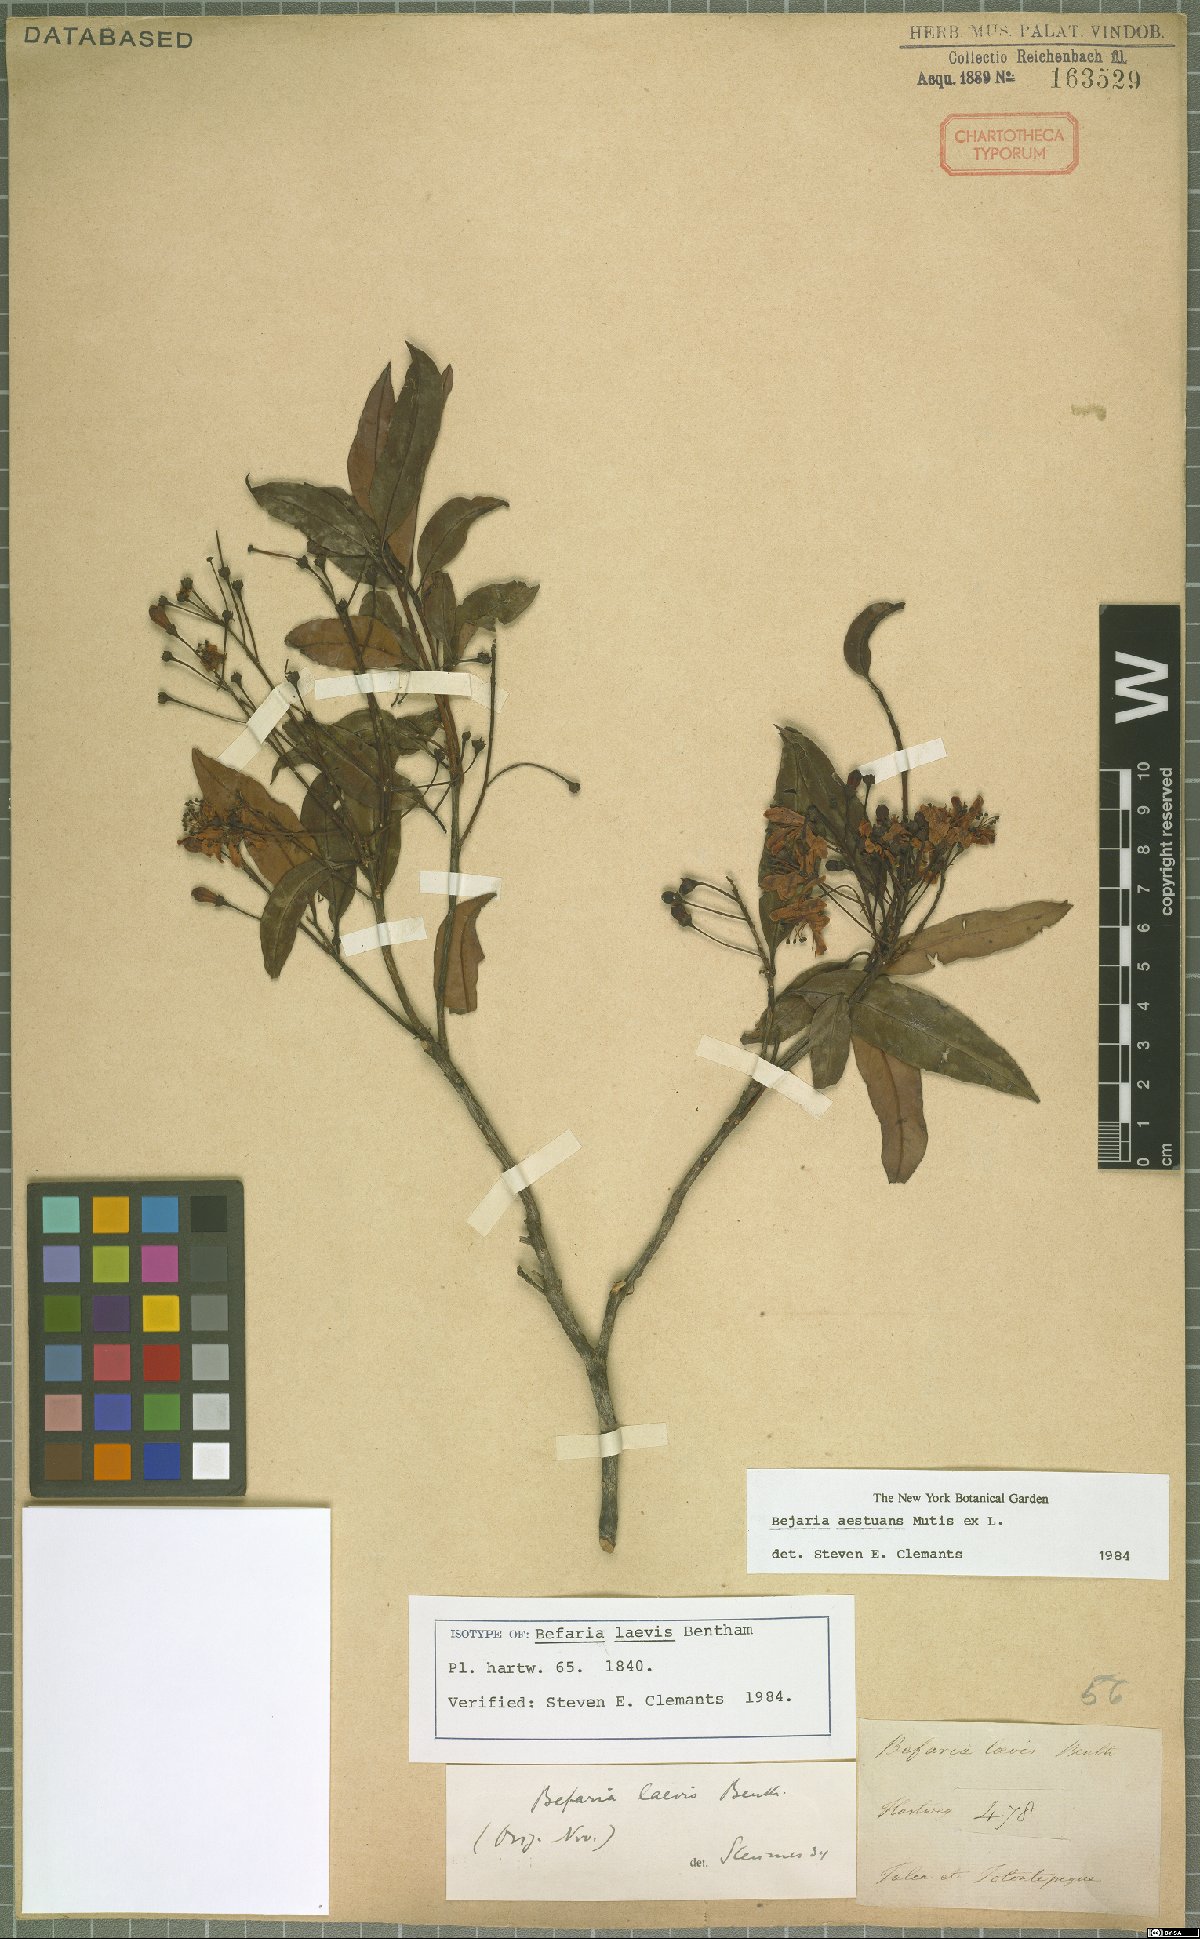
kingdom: Plantae
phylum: Tracheophyta
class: Magnoliopsida
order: Ericales
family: Ericaceae
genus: Bejaria
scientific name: Bejaria aestuans
